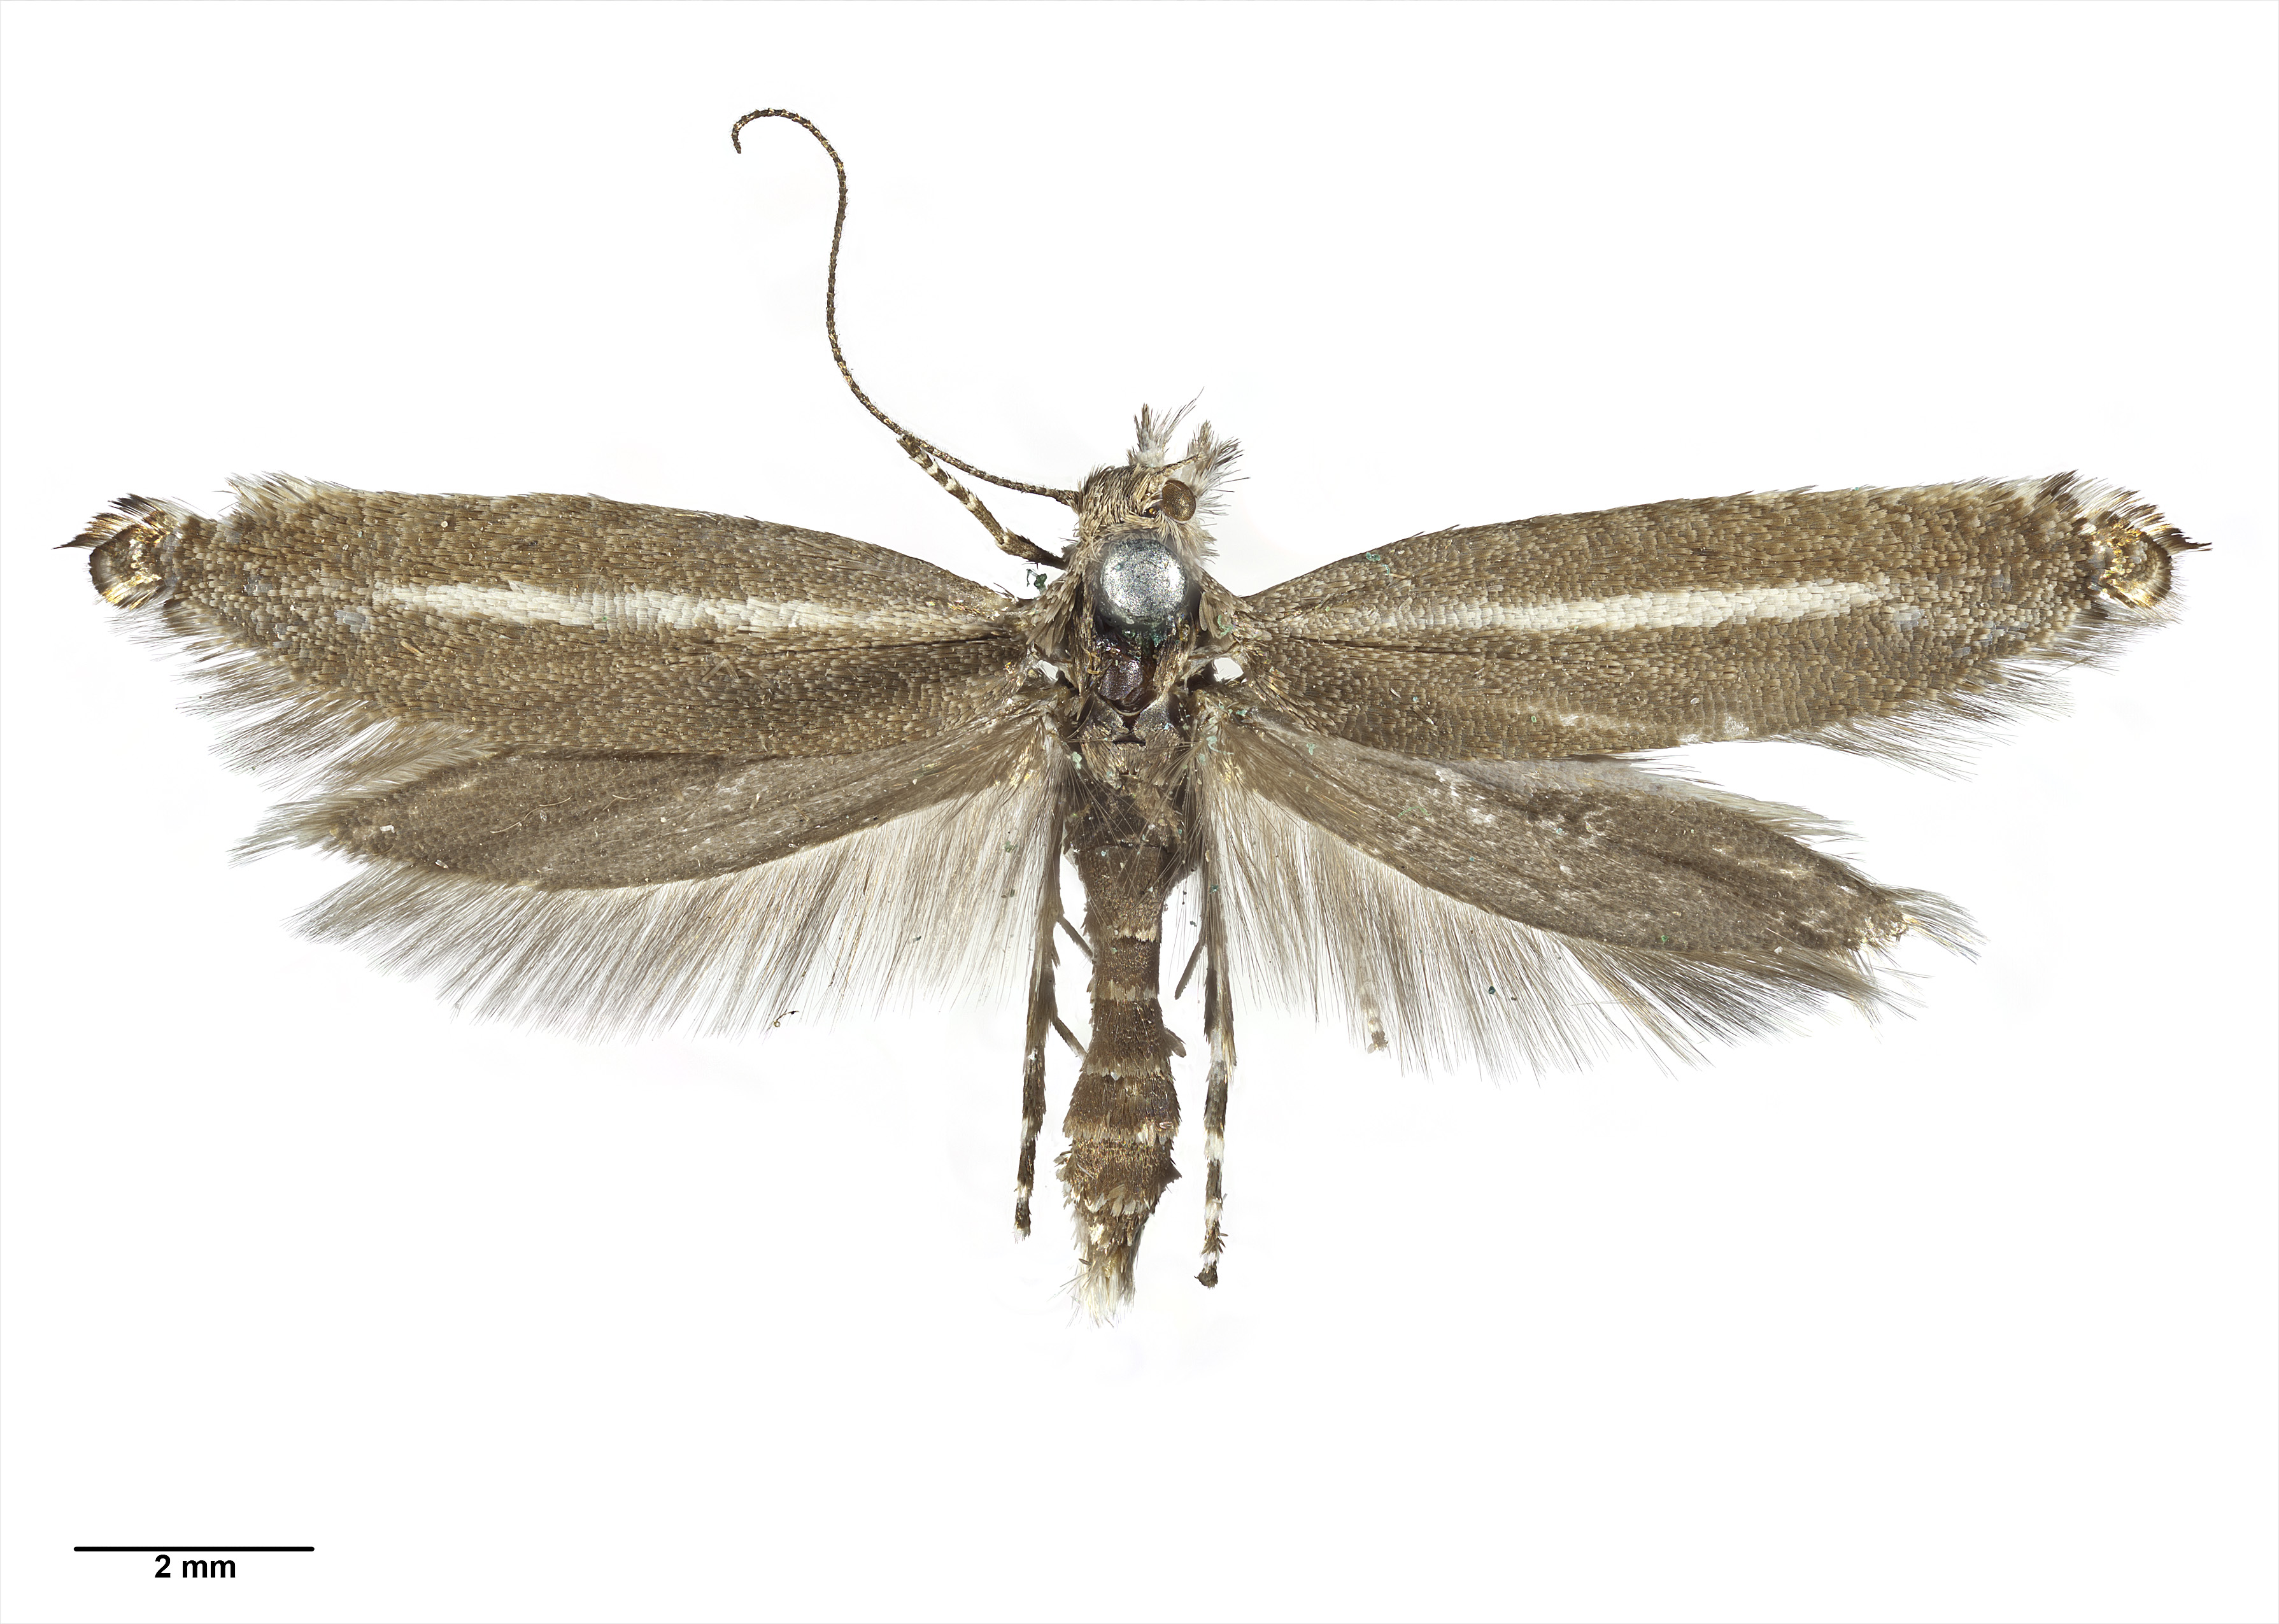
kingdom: Animalia
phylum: Arthropoda
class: Insecta
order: Lepidoptera
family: Glyphipterigidae
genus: Glyphipterix
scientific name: Glyphipterix barbata
